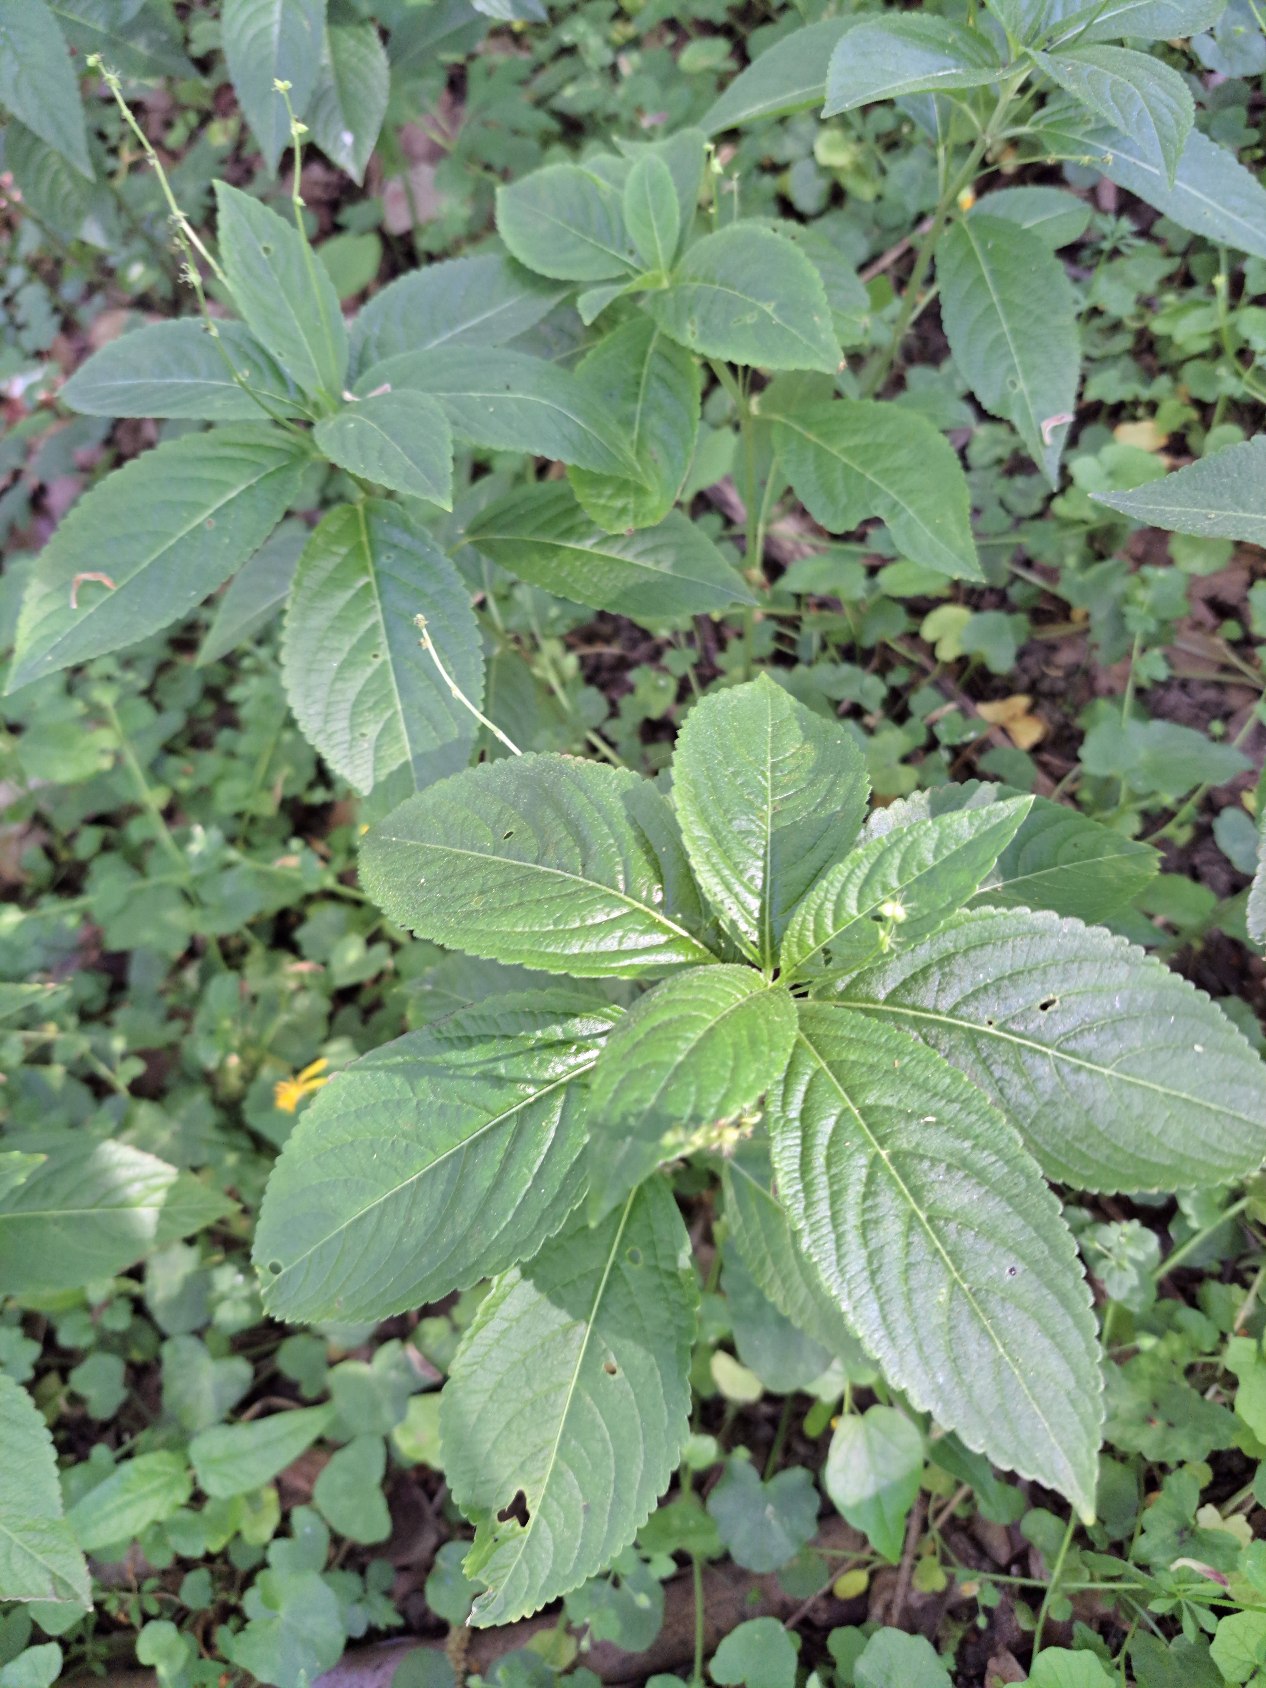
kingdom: Plantae
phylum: Tracheophyta
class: Magnoliopsida
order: Malpighiales
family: Euphorbiaceae
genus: Mercurialis
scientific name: Mercurialis perennis
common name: Almindelig bingelurt
